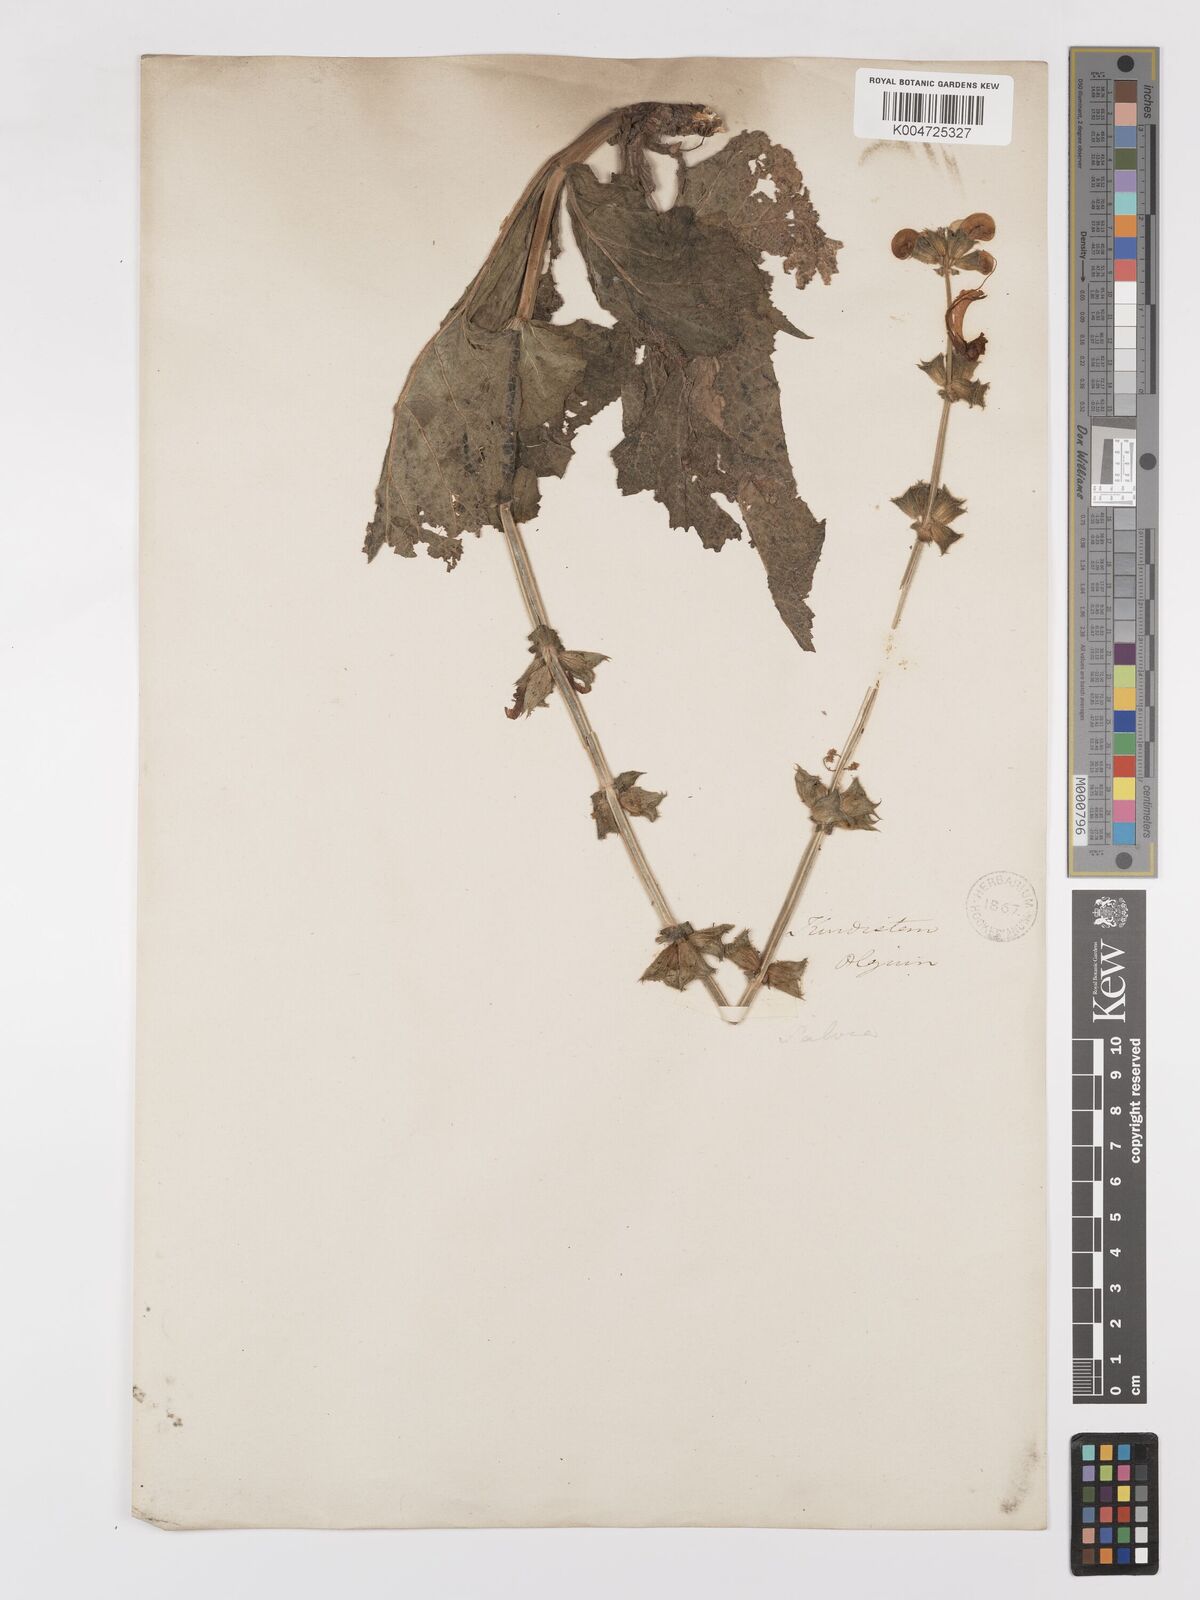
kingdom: Plantae
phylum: Tracheophyta
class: Magnoliopsida
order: Lamiales
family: Lamiaceae
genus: Salvia
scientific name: Salvia indica
